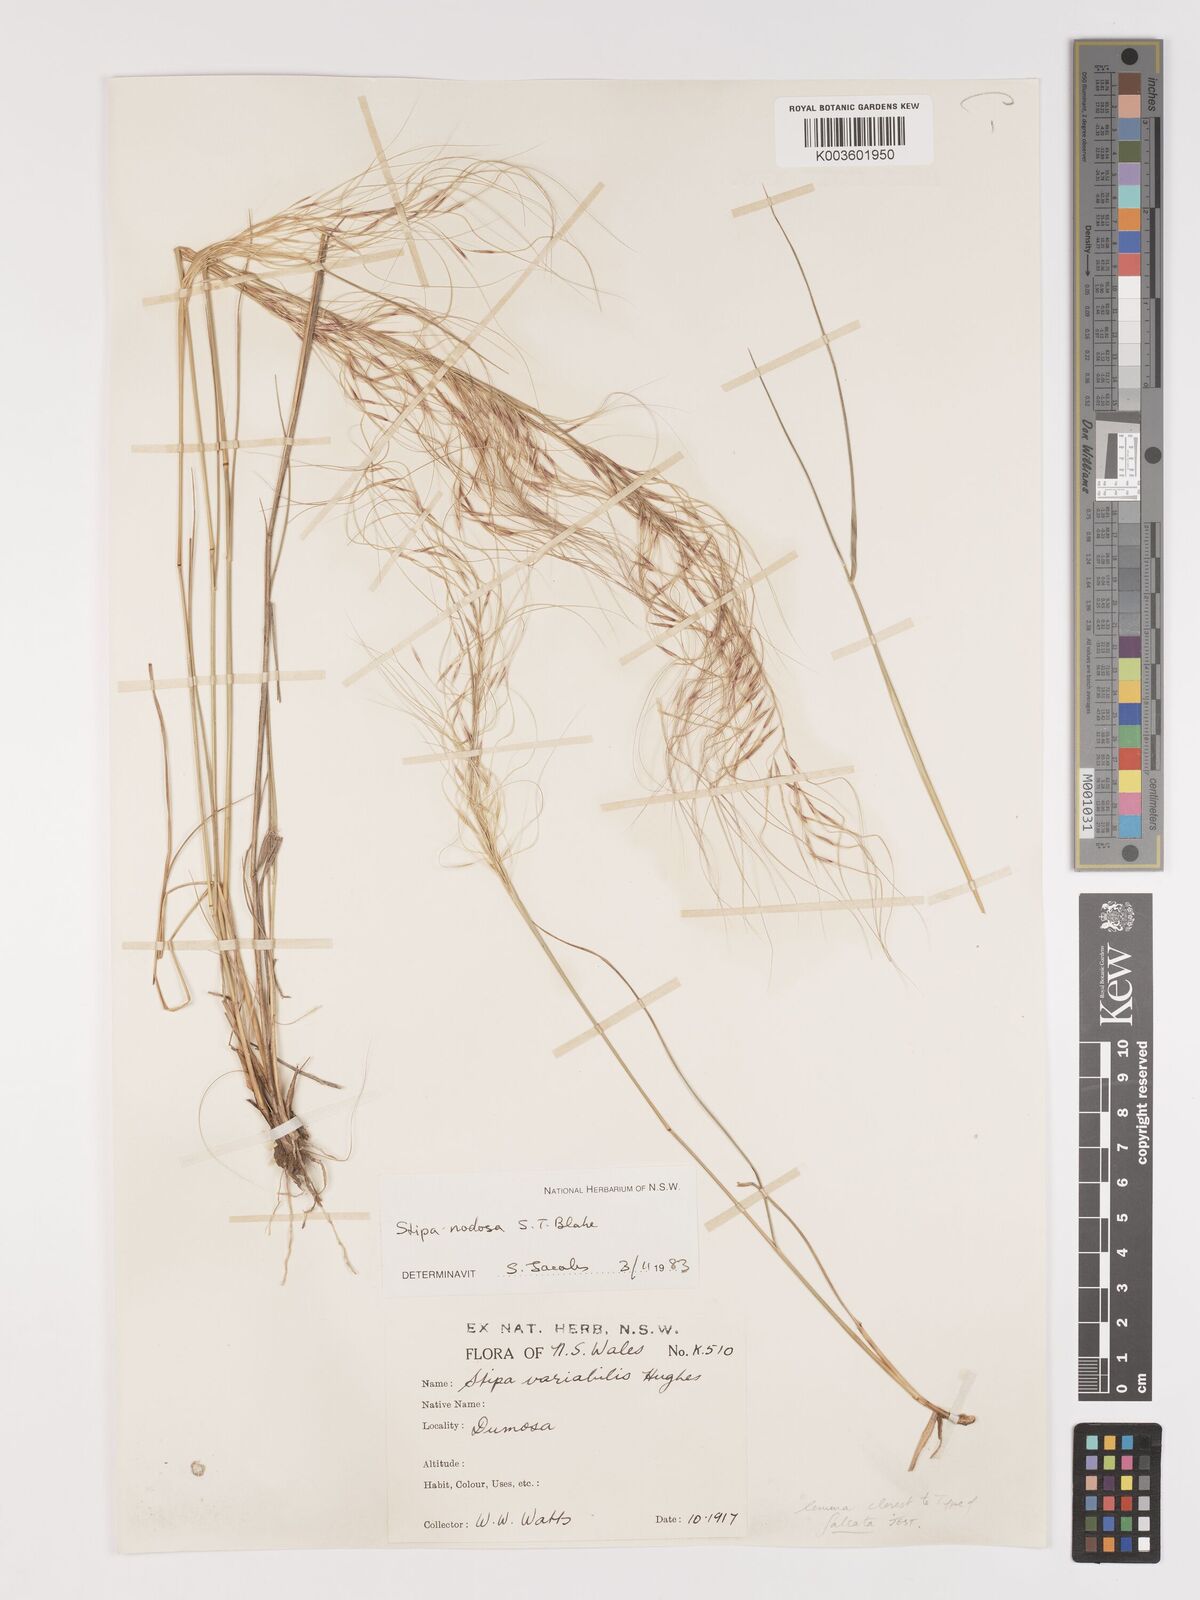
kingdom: Plantae
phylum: Tracheophyta
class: Liliopsida
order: Poales
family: Poaceae
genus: Austrostipa
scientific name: Austrostipa nodosa
